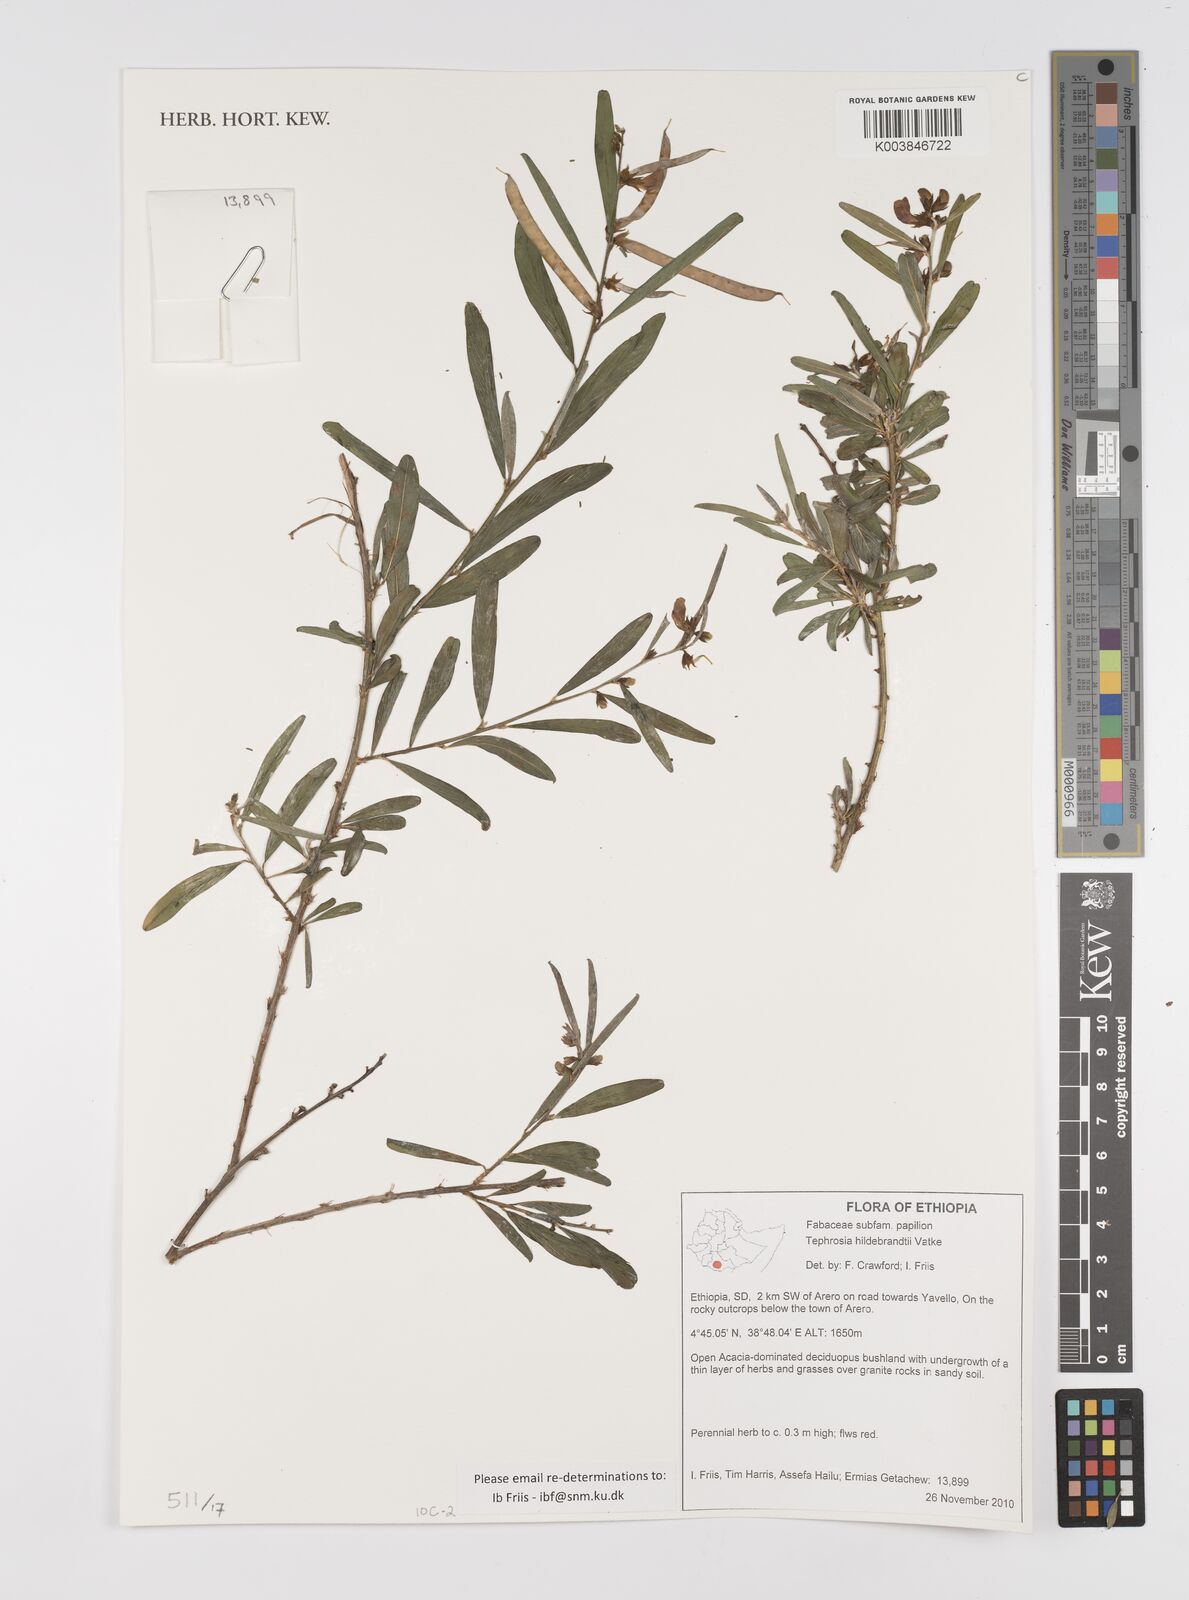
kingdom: Plantae
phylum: Tracheophyta
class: Magnoliopsida
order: Fabales
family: Fabaceae
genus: Tephrosia
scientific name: Tephrosia hildebrandtii
